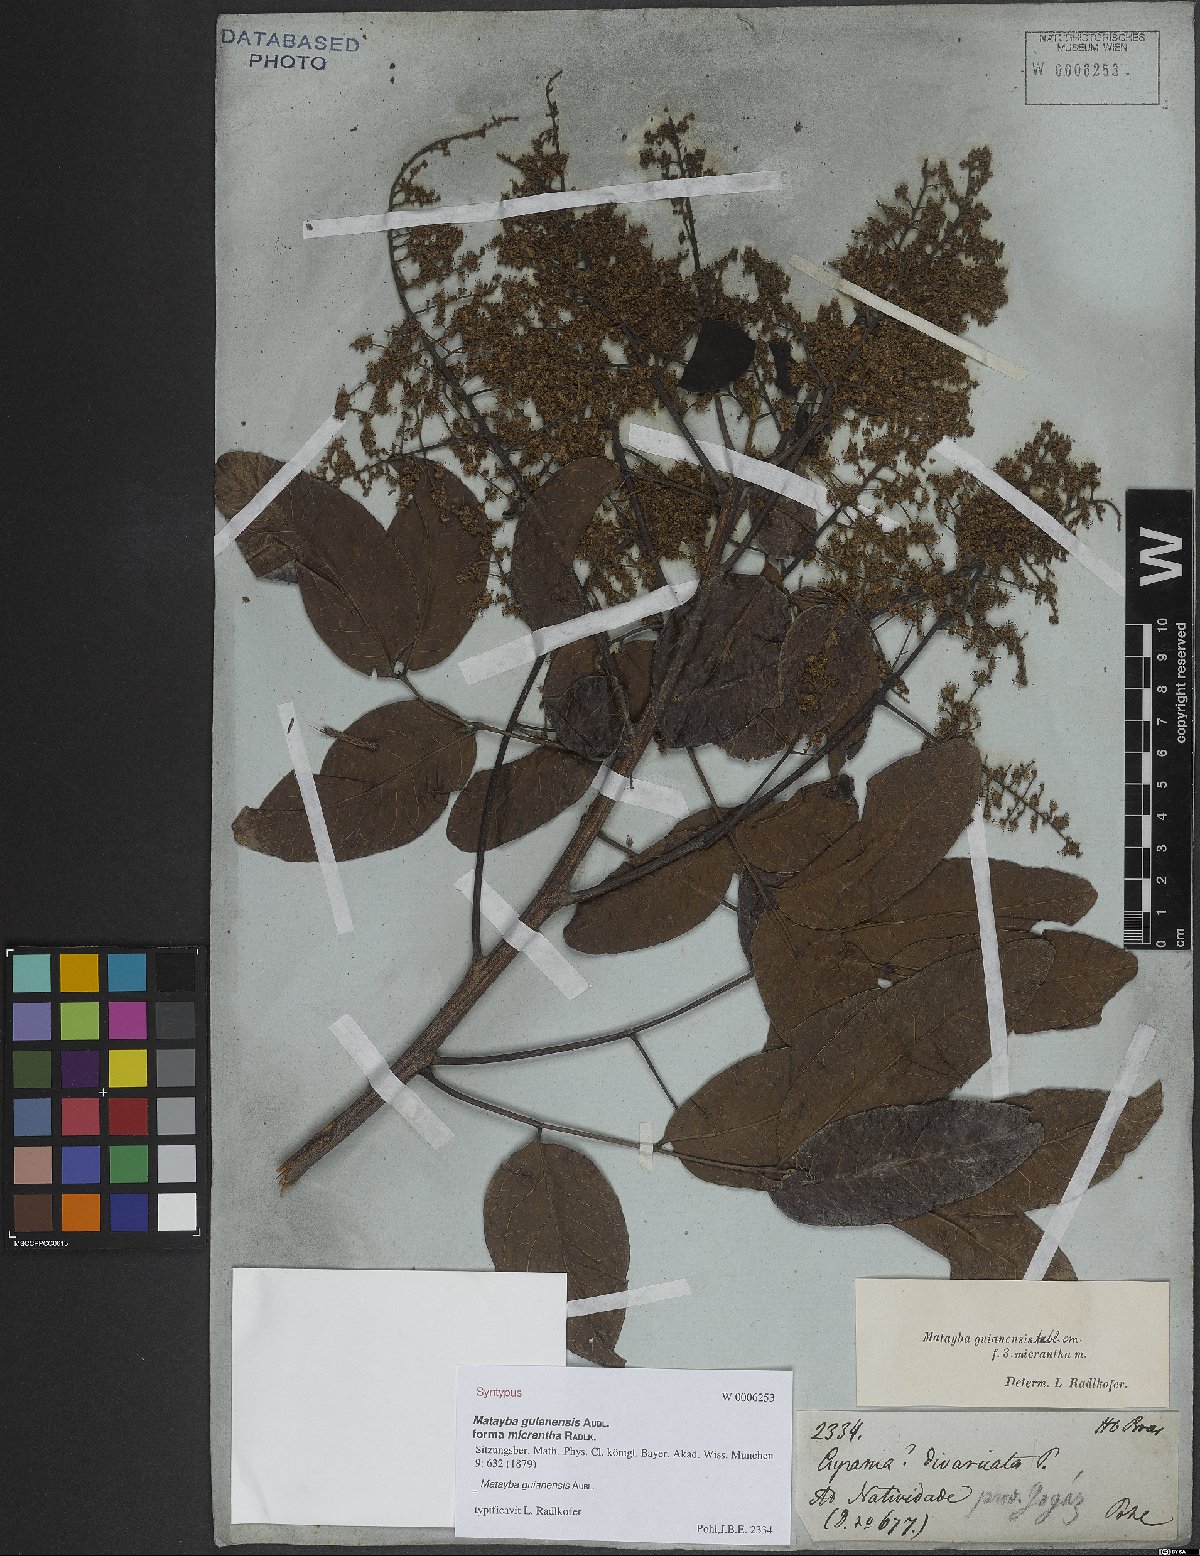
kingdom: Plantae
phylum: Tracheophyta
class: Magnoliopsida
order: Sapindales
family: Sapindaceae
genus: Matayba
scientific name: Matayba guianensis
